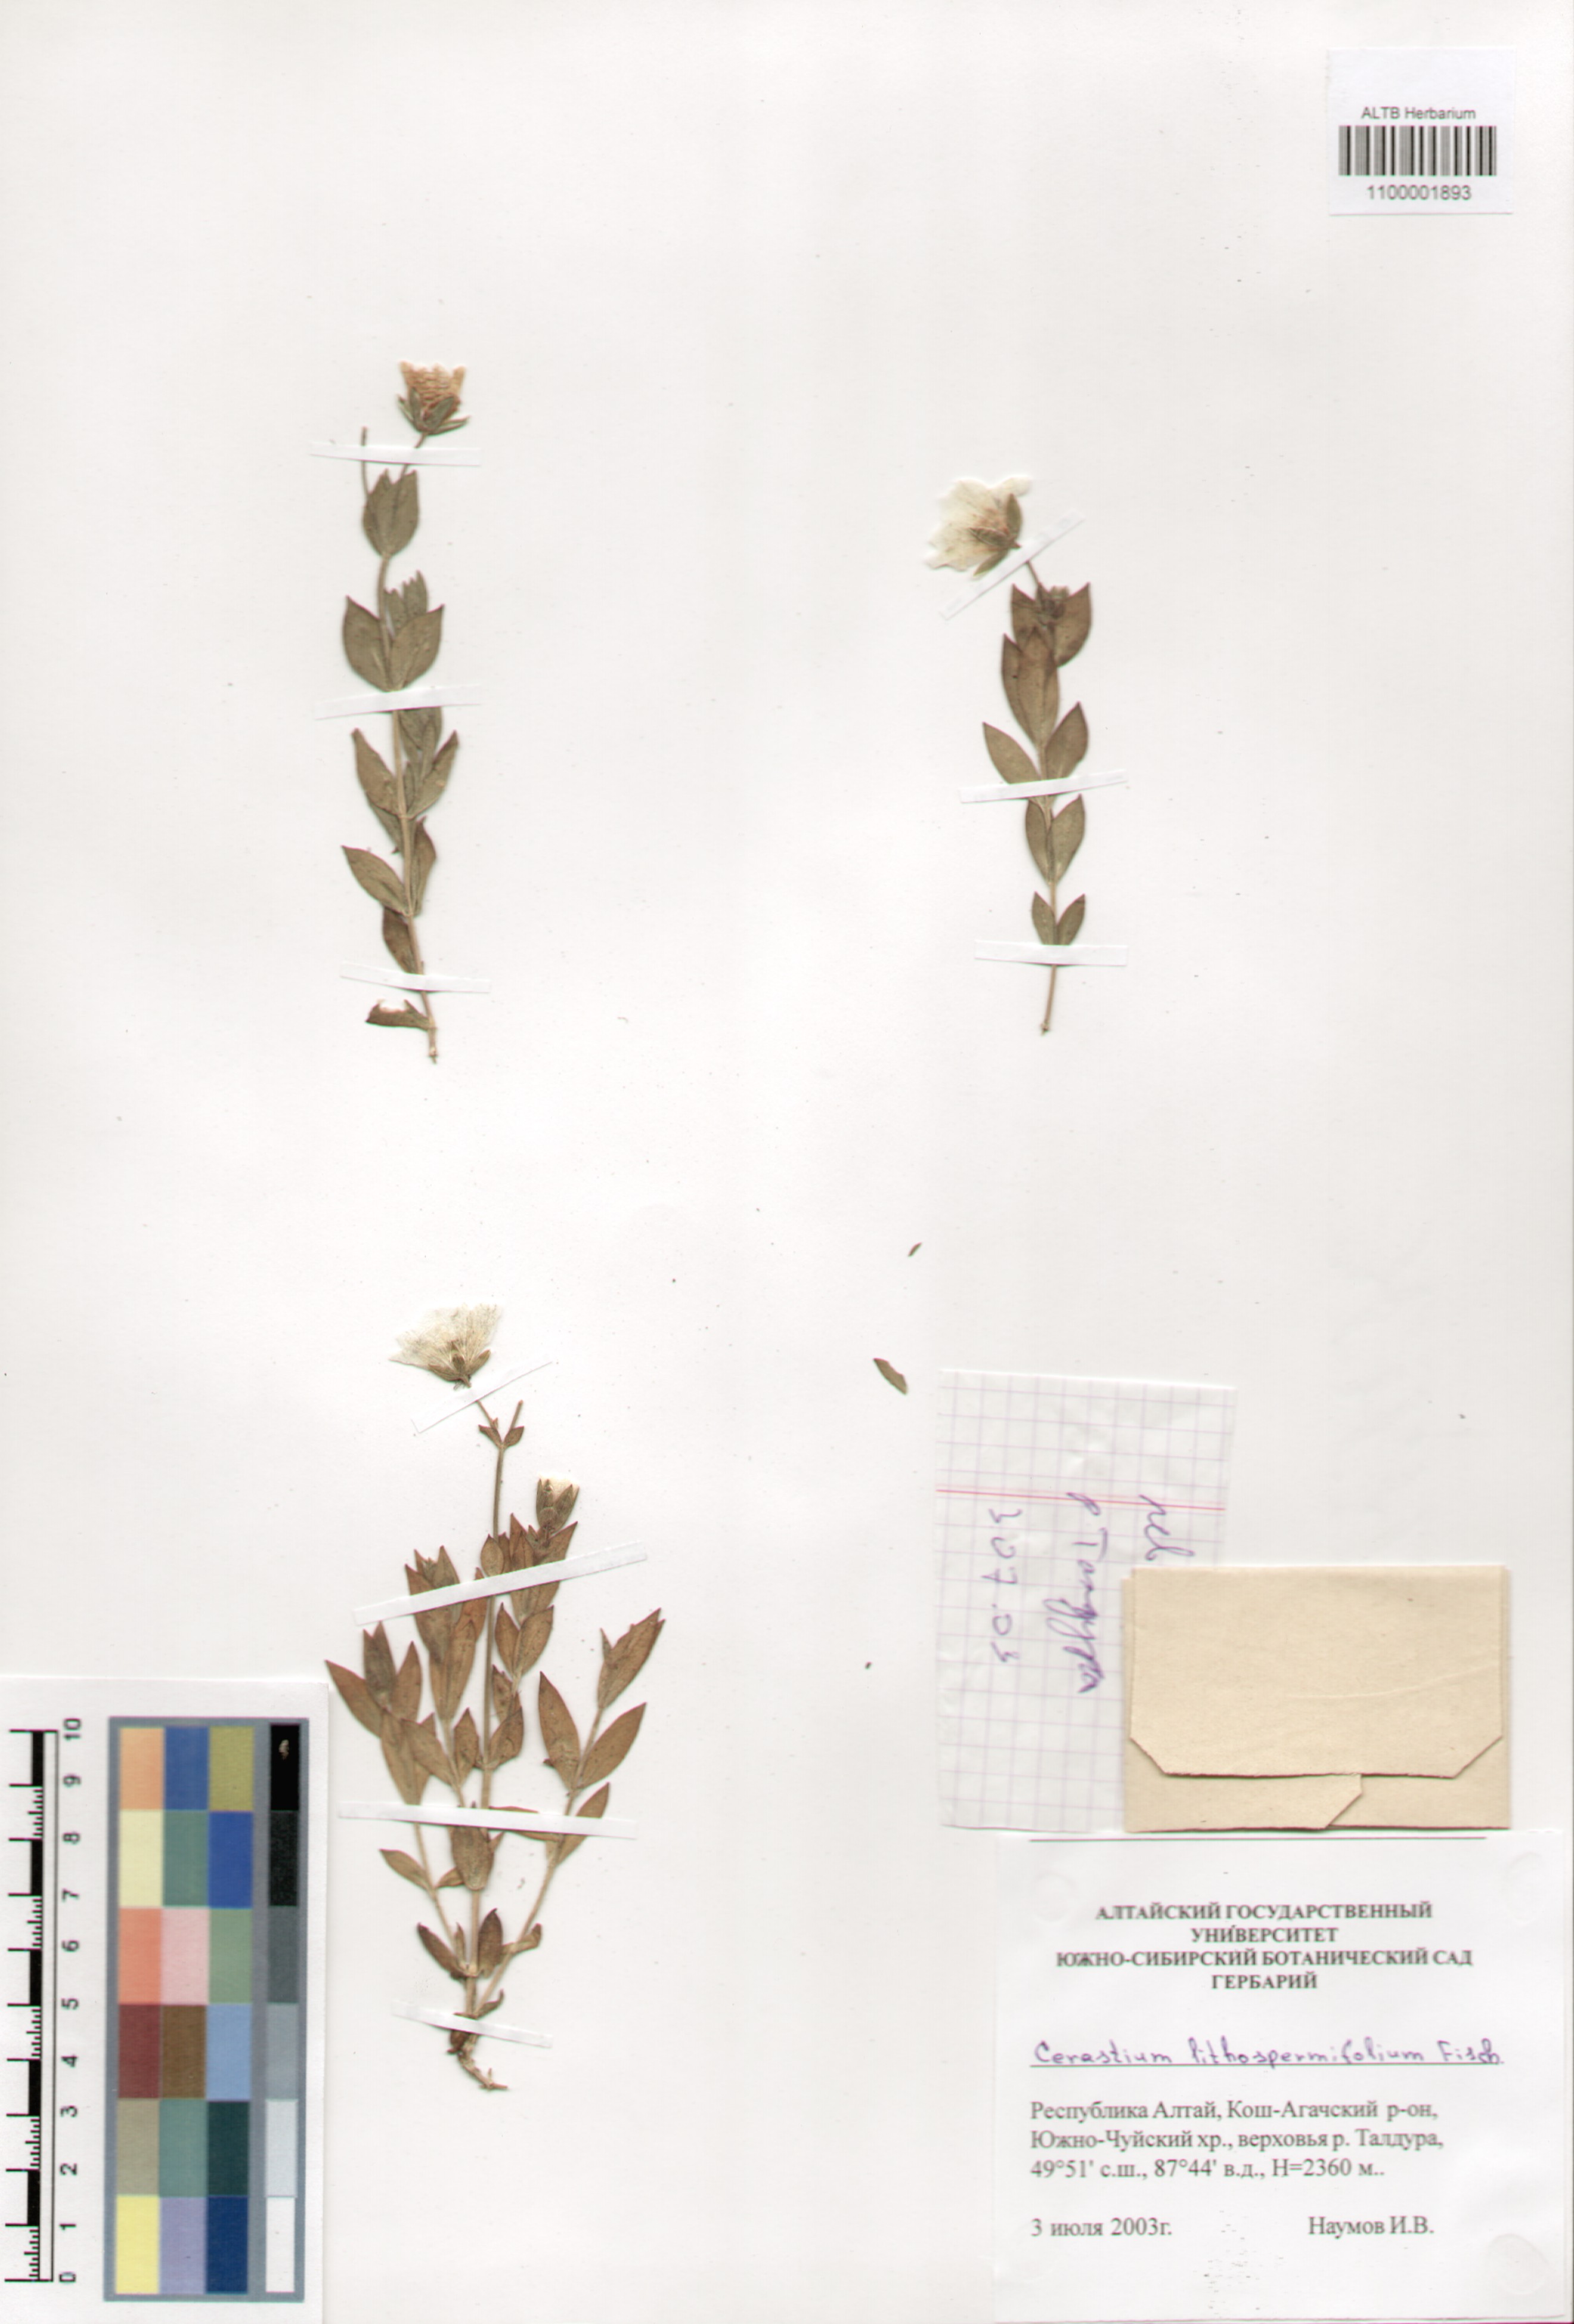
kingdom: Plantae
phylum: Tracheophyta
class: Magnoliopsida
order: Caryophyllales
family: Caryophyllaceae
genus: Cerastium
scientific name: Cerastium lithospermifolium
